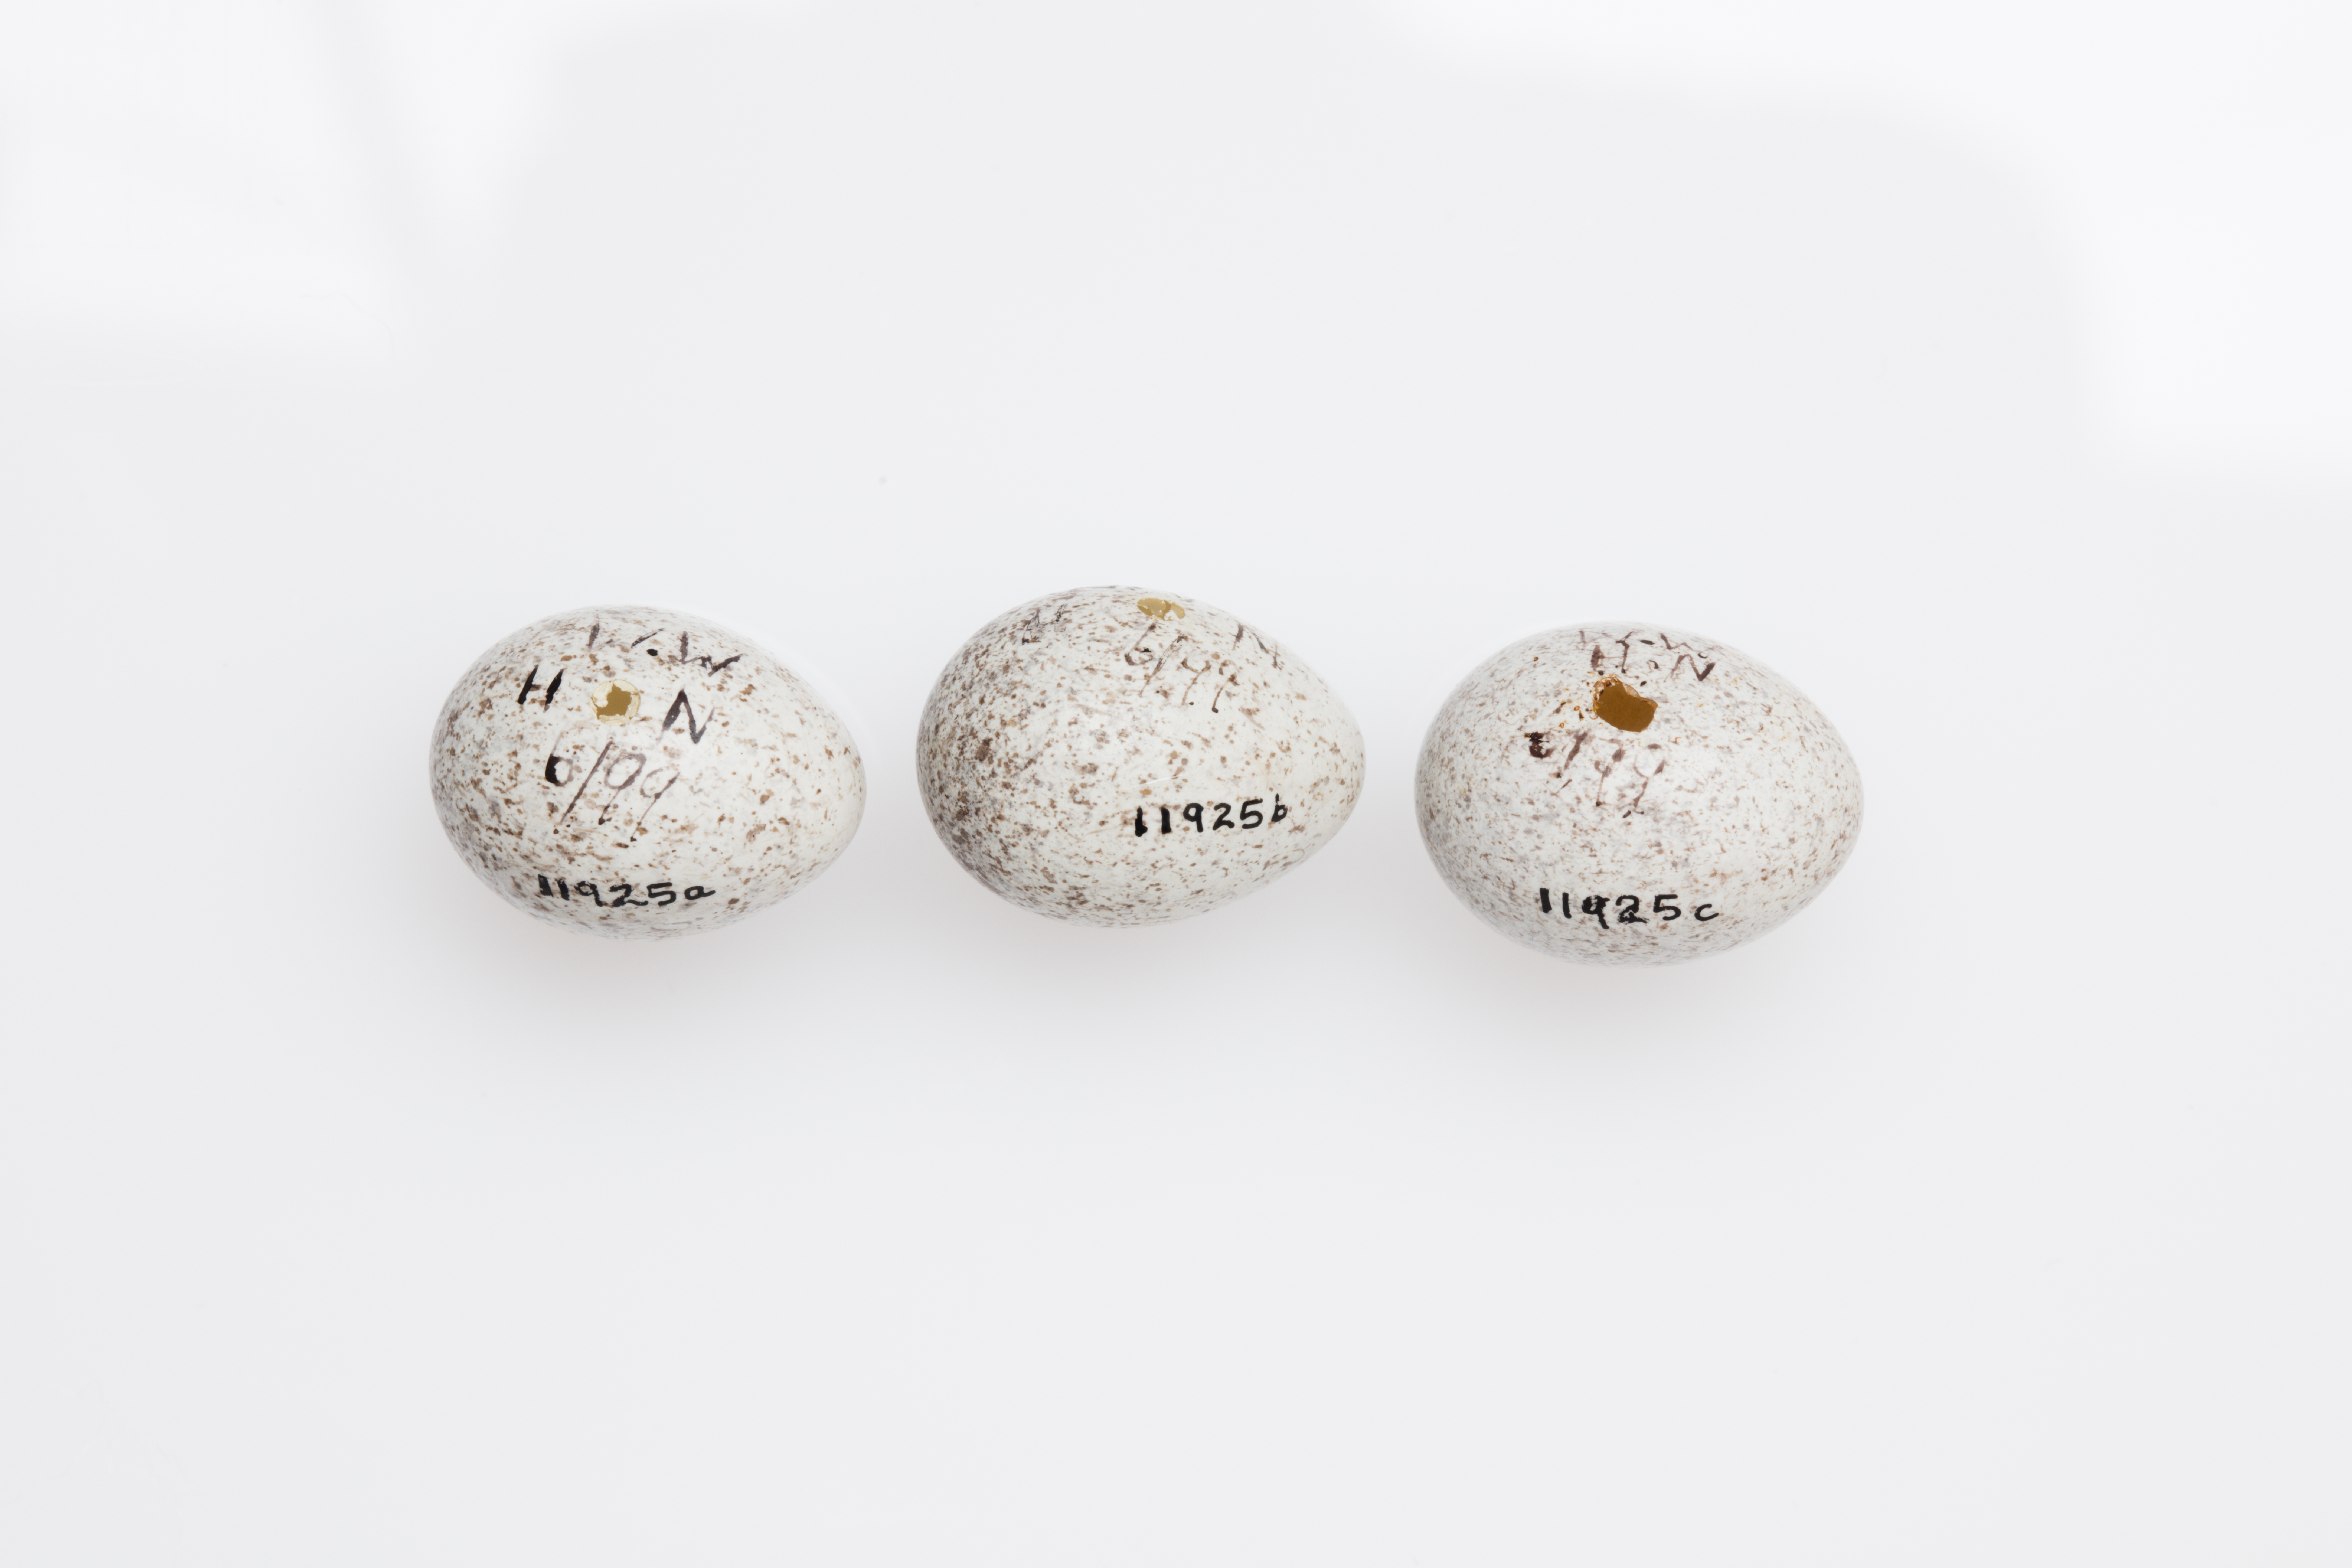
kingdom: Animalia
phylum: Chordata
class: Aves
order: Passeriformes
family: Motacillidae
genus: Motacilla
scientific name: Motacilla alba
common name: White wagtail
